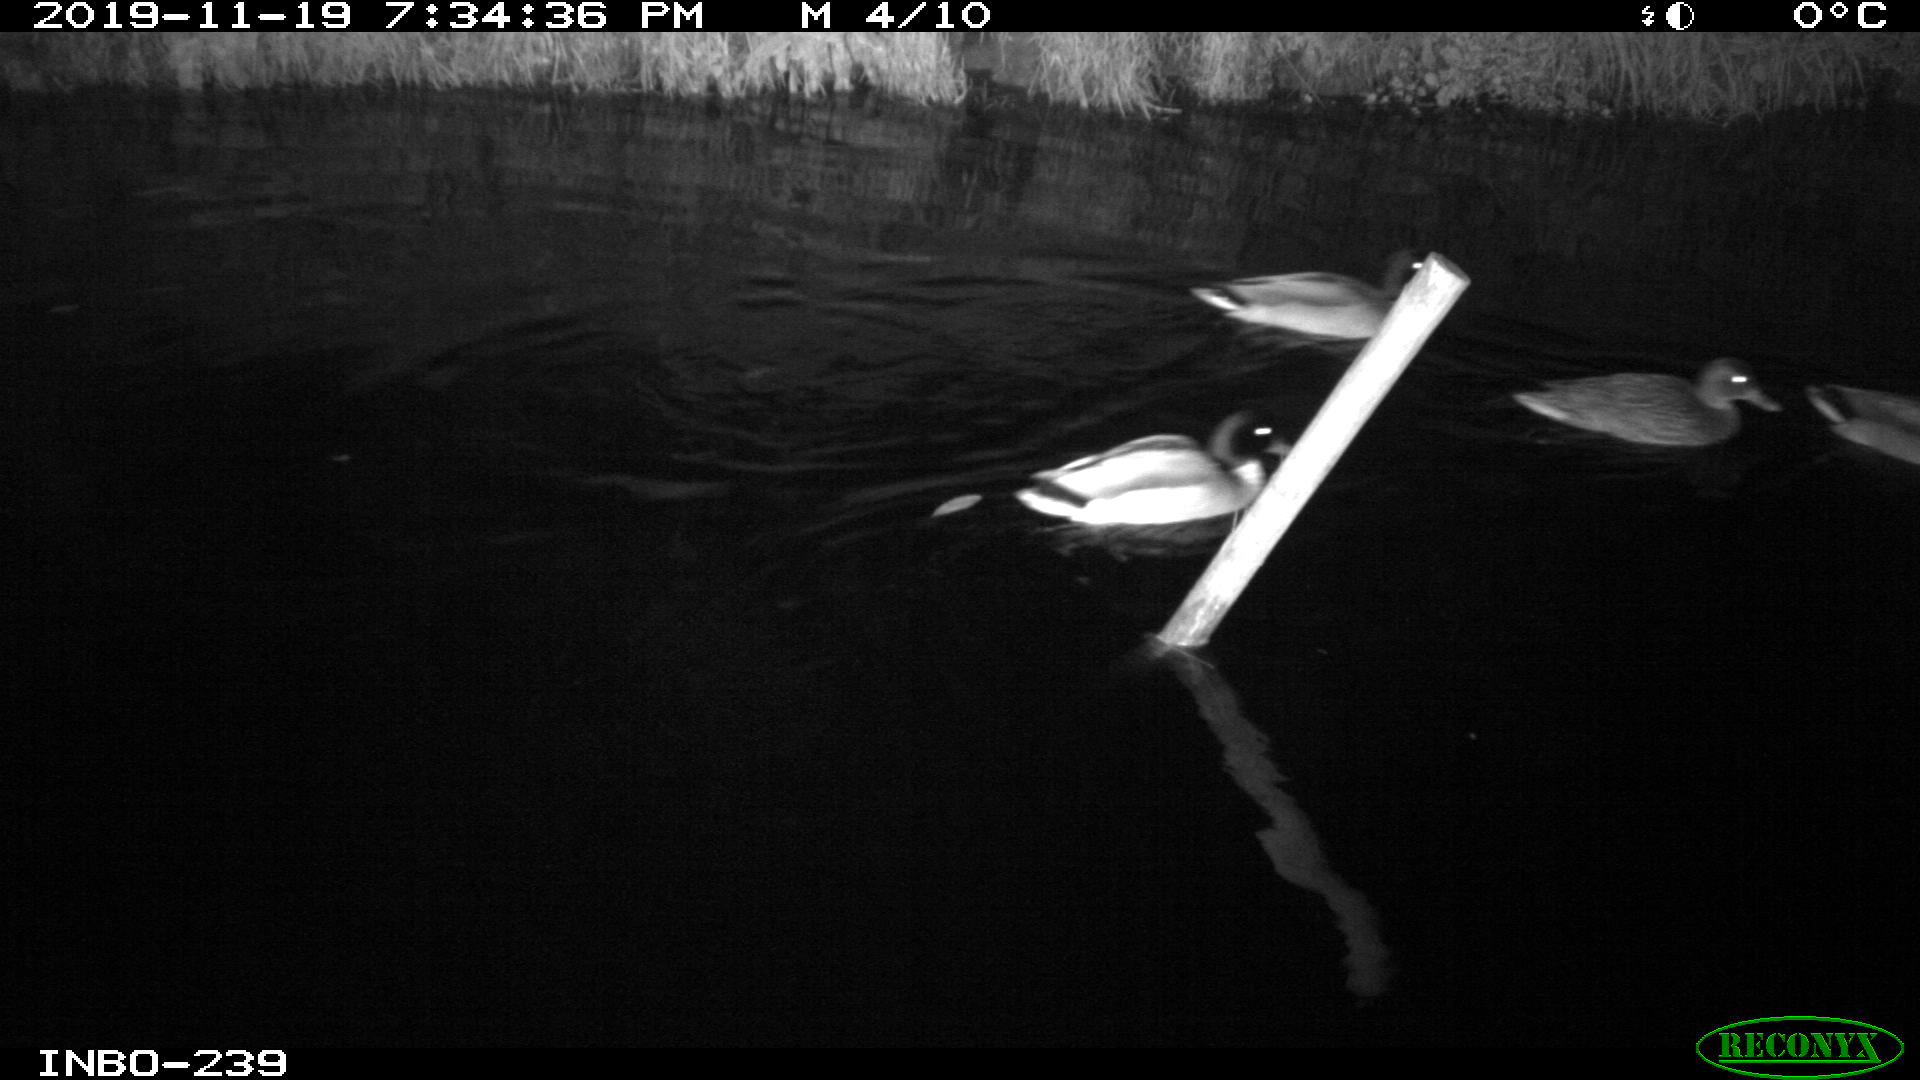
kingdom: Animalia
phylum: Chordata
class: Aves
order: Anseriformes
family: Anatidae
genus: Anas
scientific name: Anas platyrhynchos
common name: Mallard
